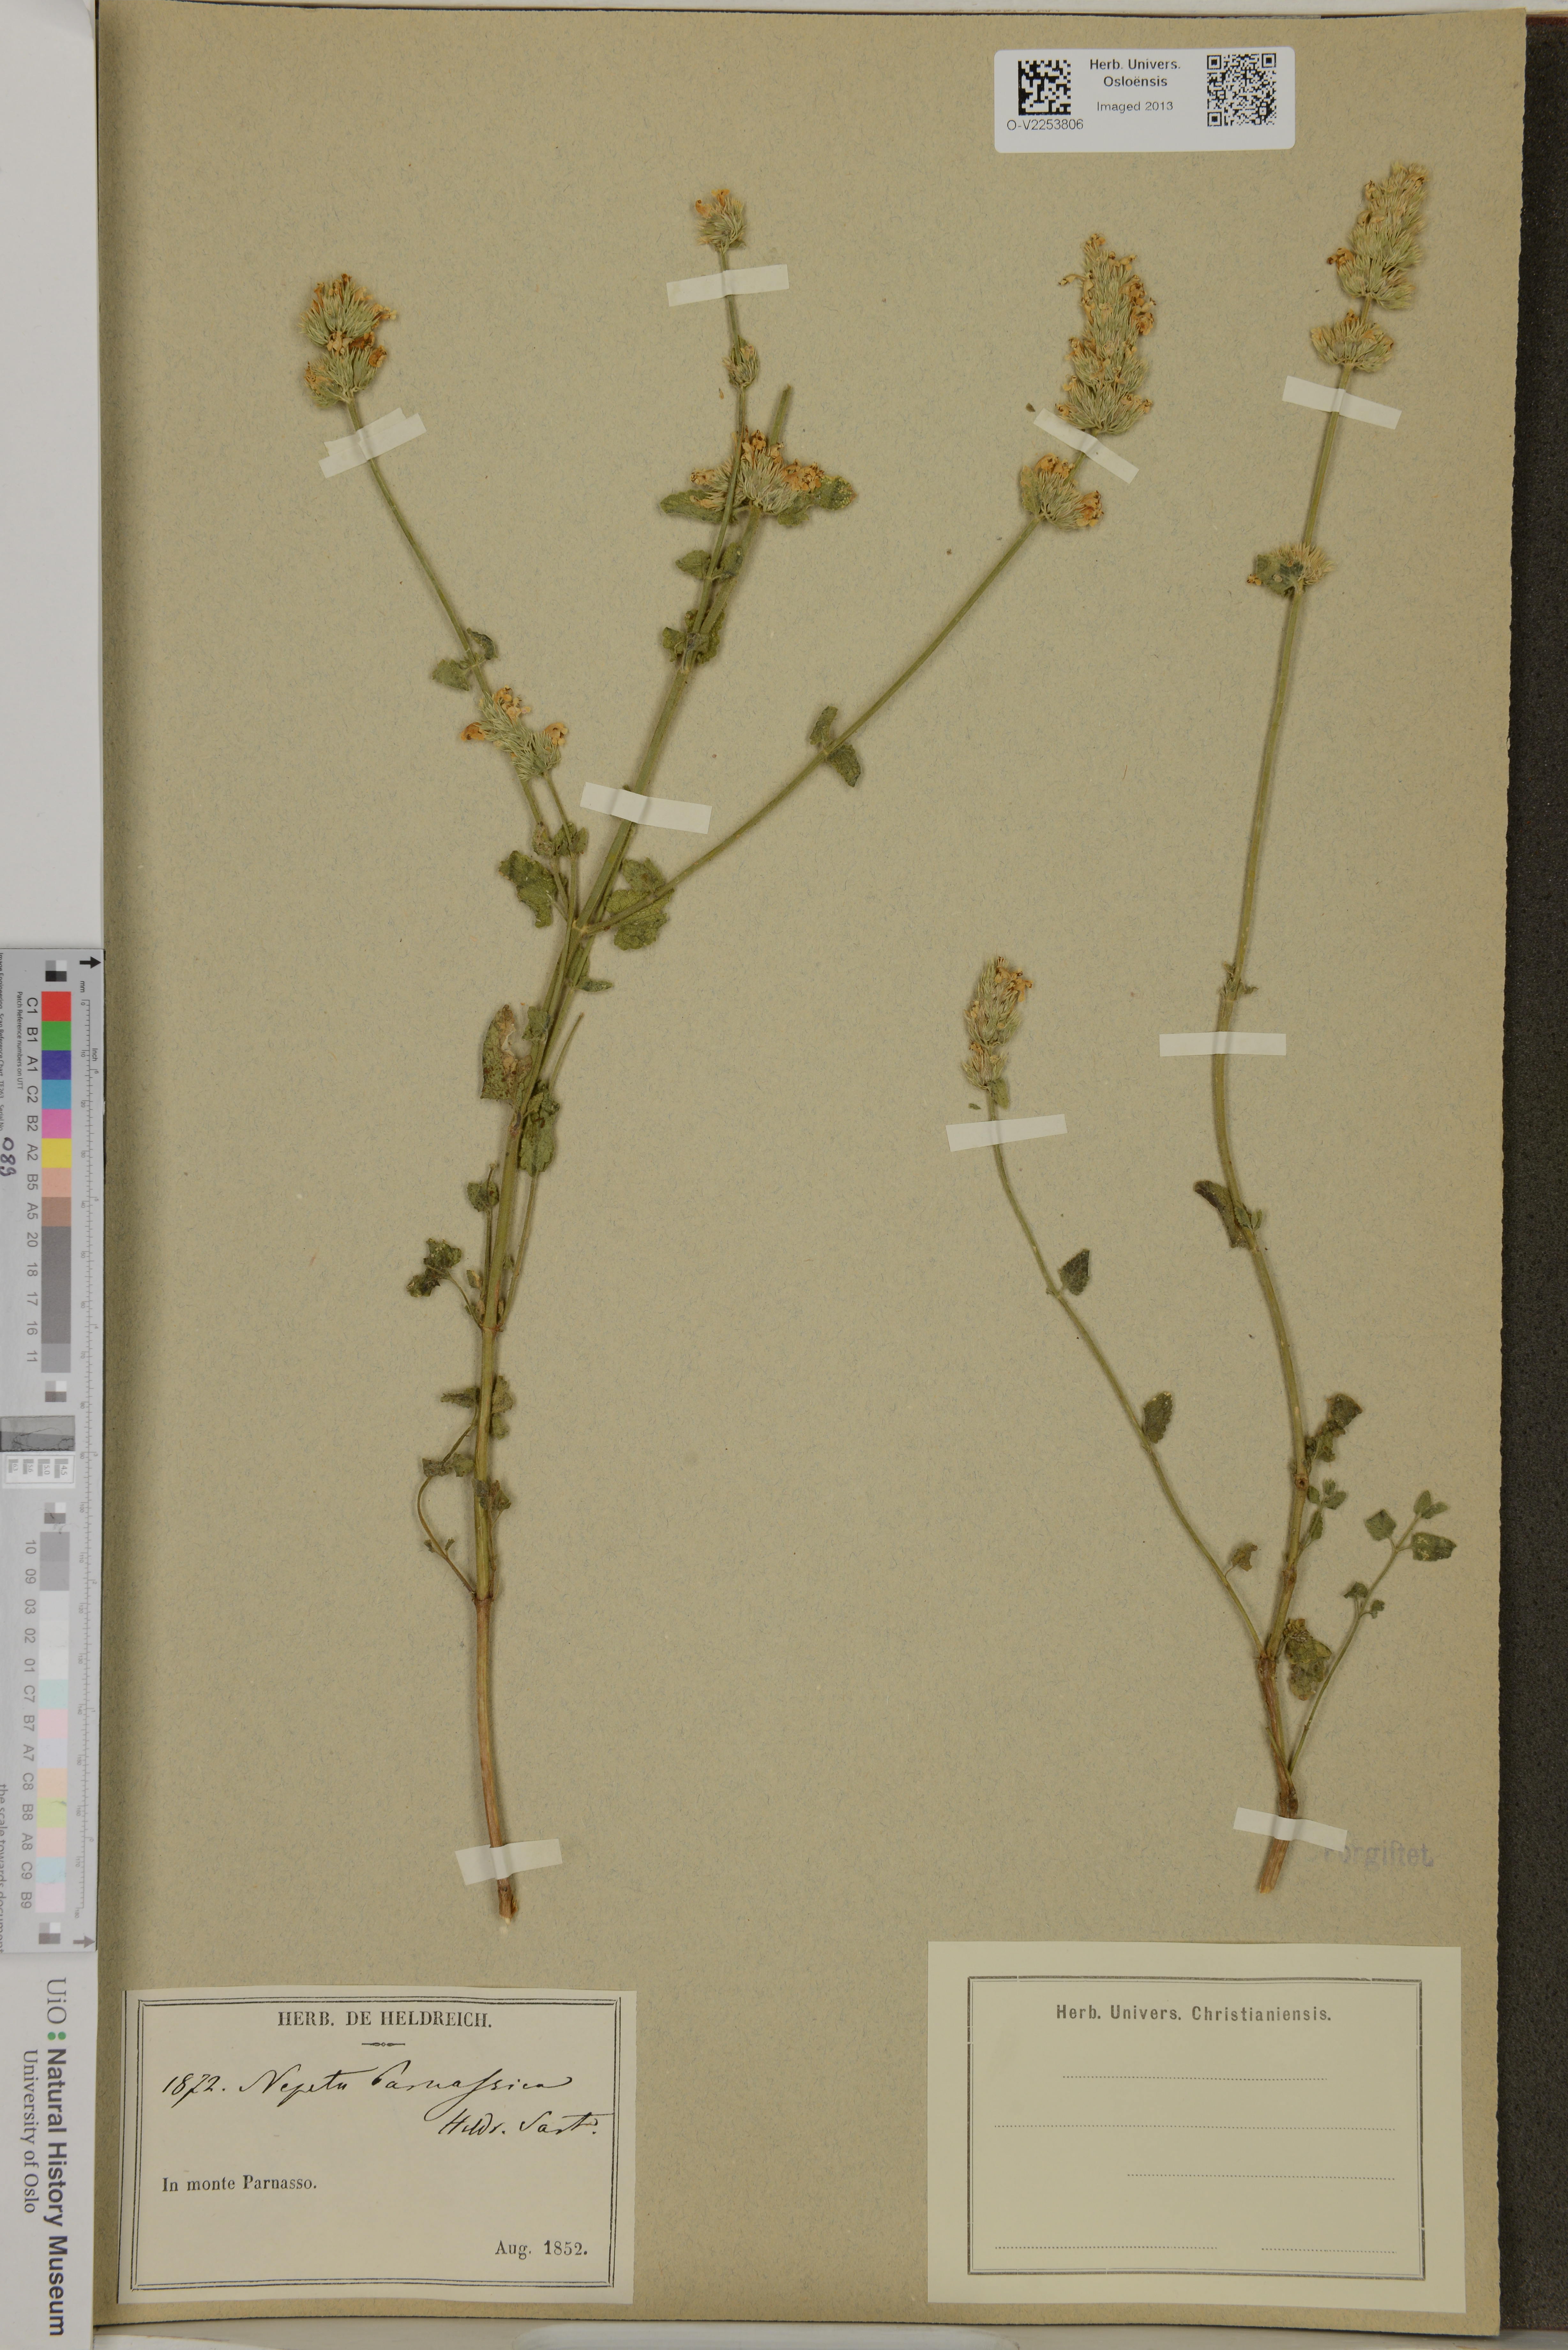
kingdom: Plantae
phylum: Tracheophyta
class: Magnoliopsida
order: Lamiales
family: Lamiaceae
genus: Nepeta
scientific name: Nepeta parnassica
